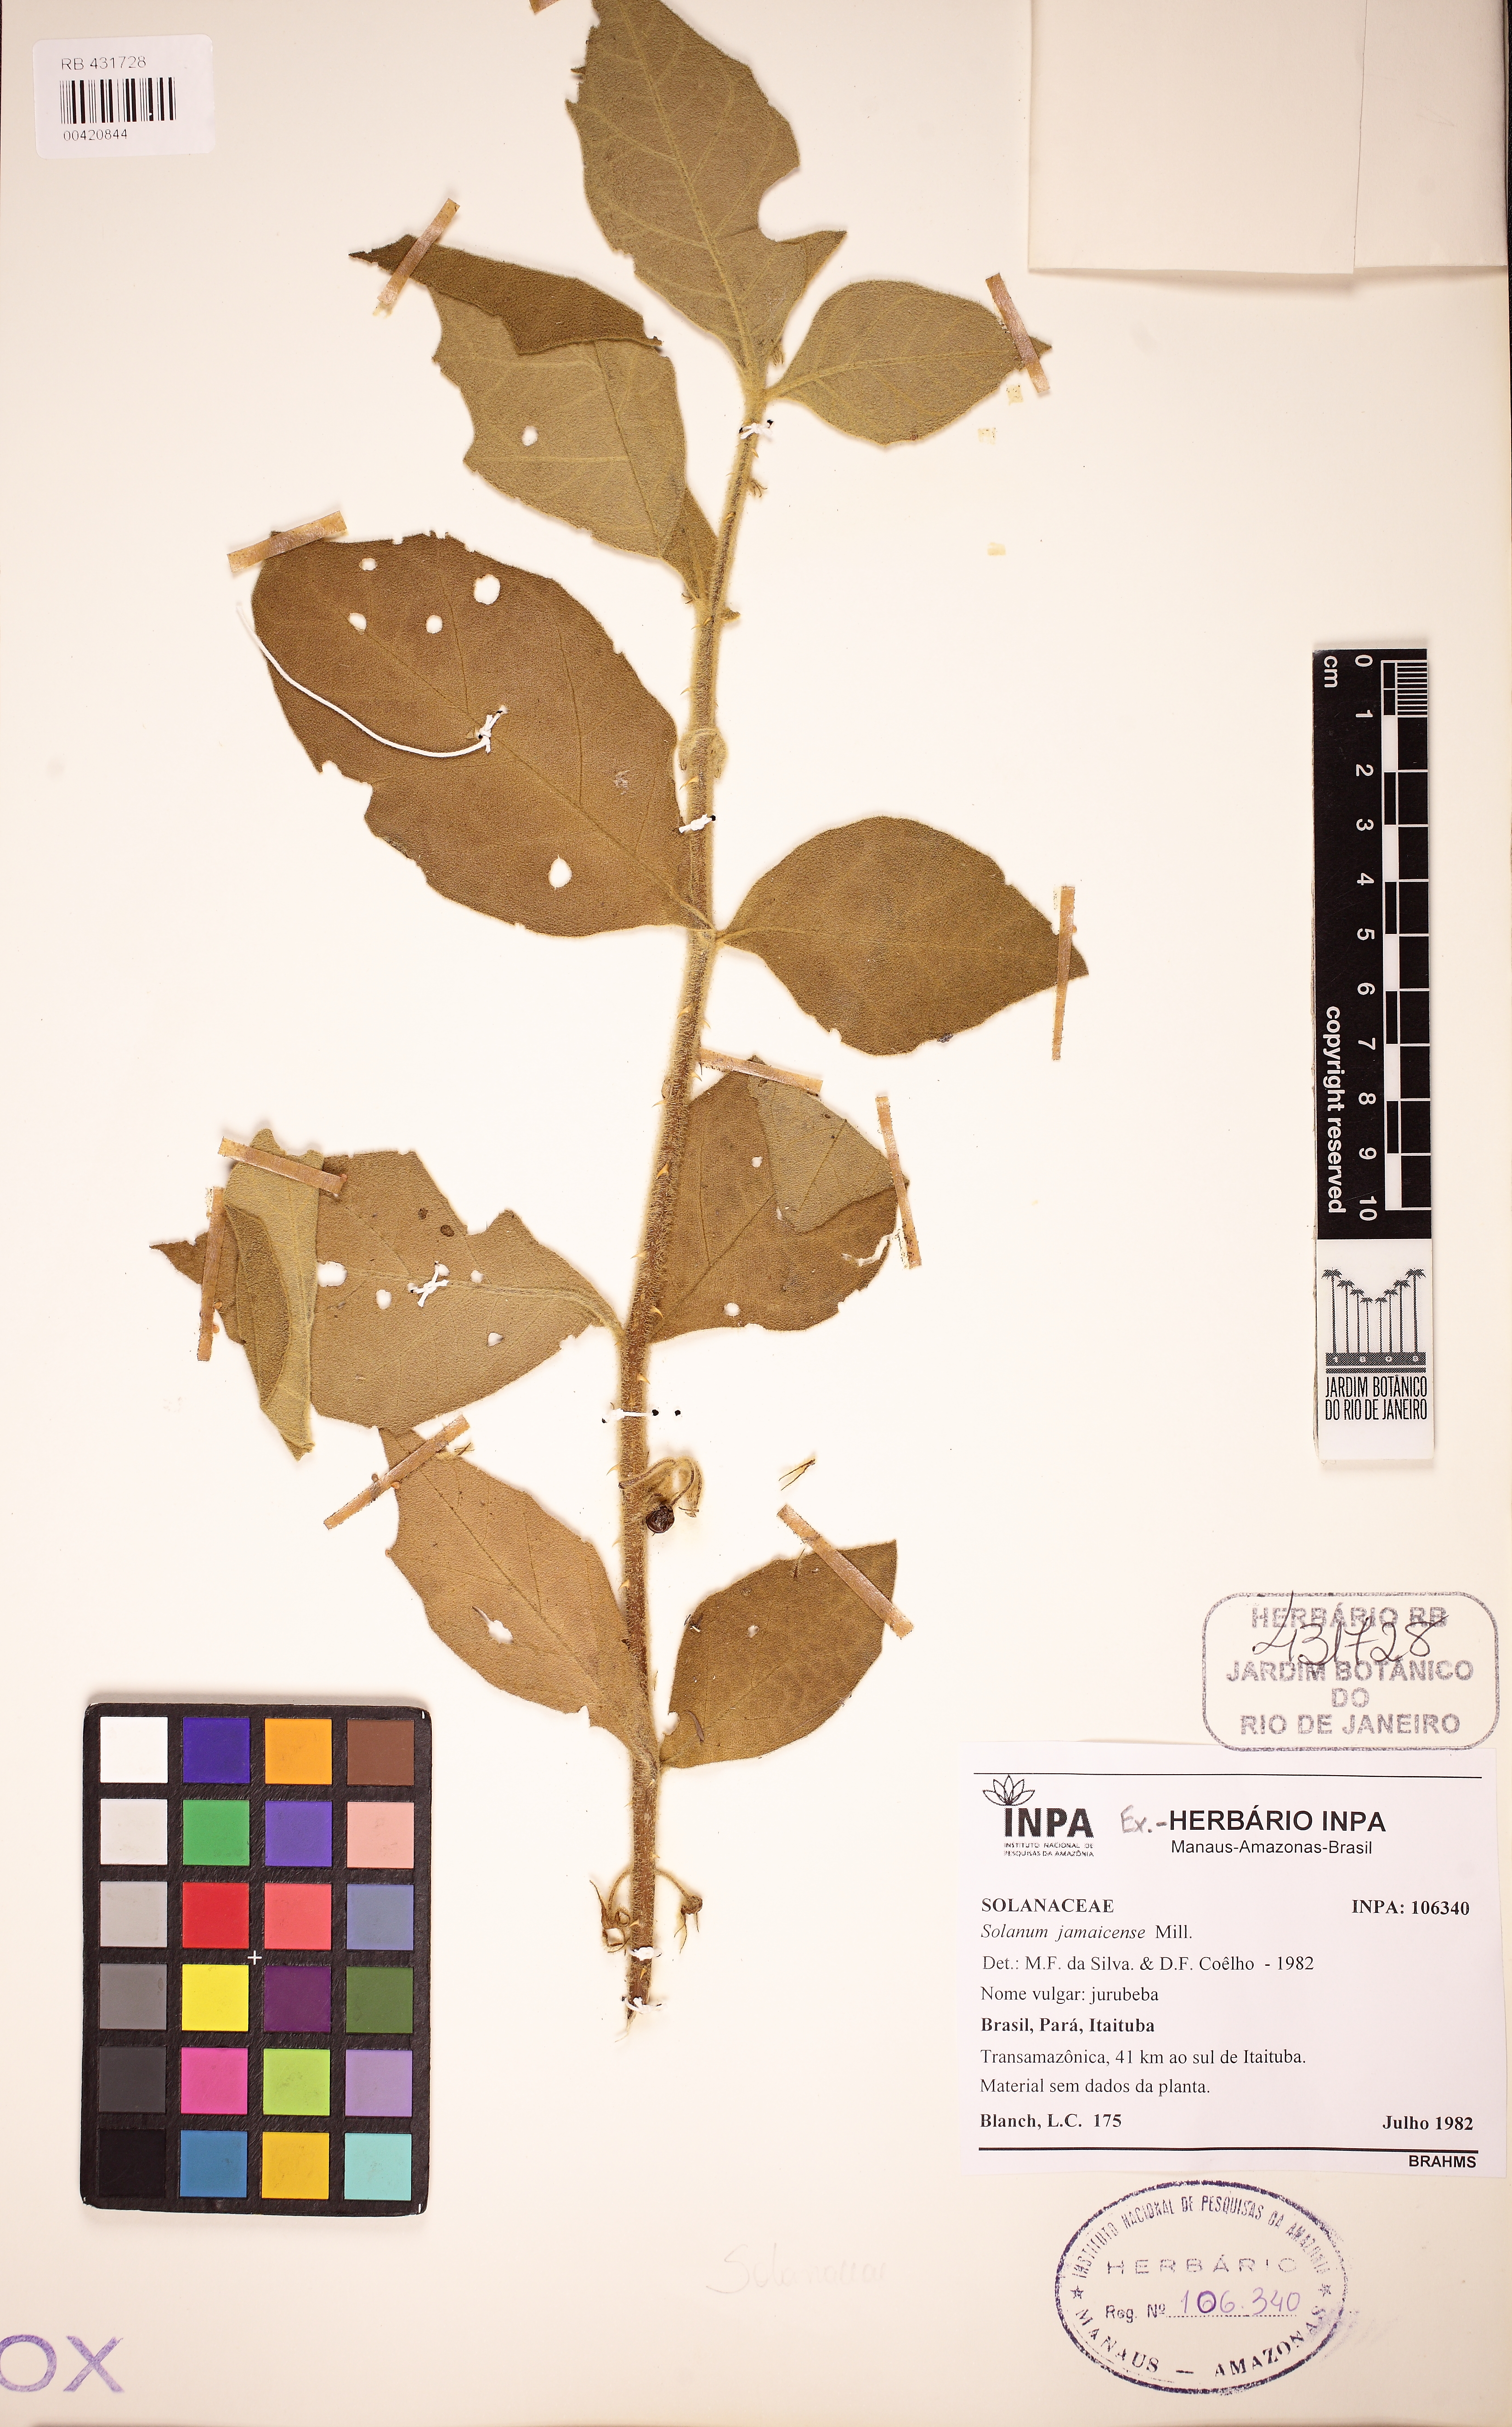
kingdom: Plantae
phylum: Tracheophyta
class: Magnoliopsida
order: Solanales
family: Solanaceae
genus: Solanum
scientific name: Solanum jamaicense
